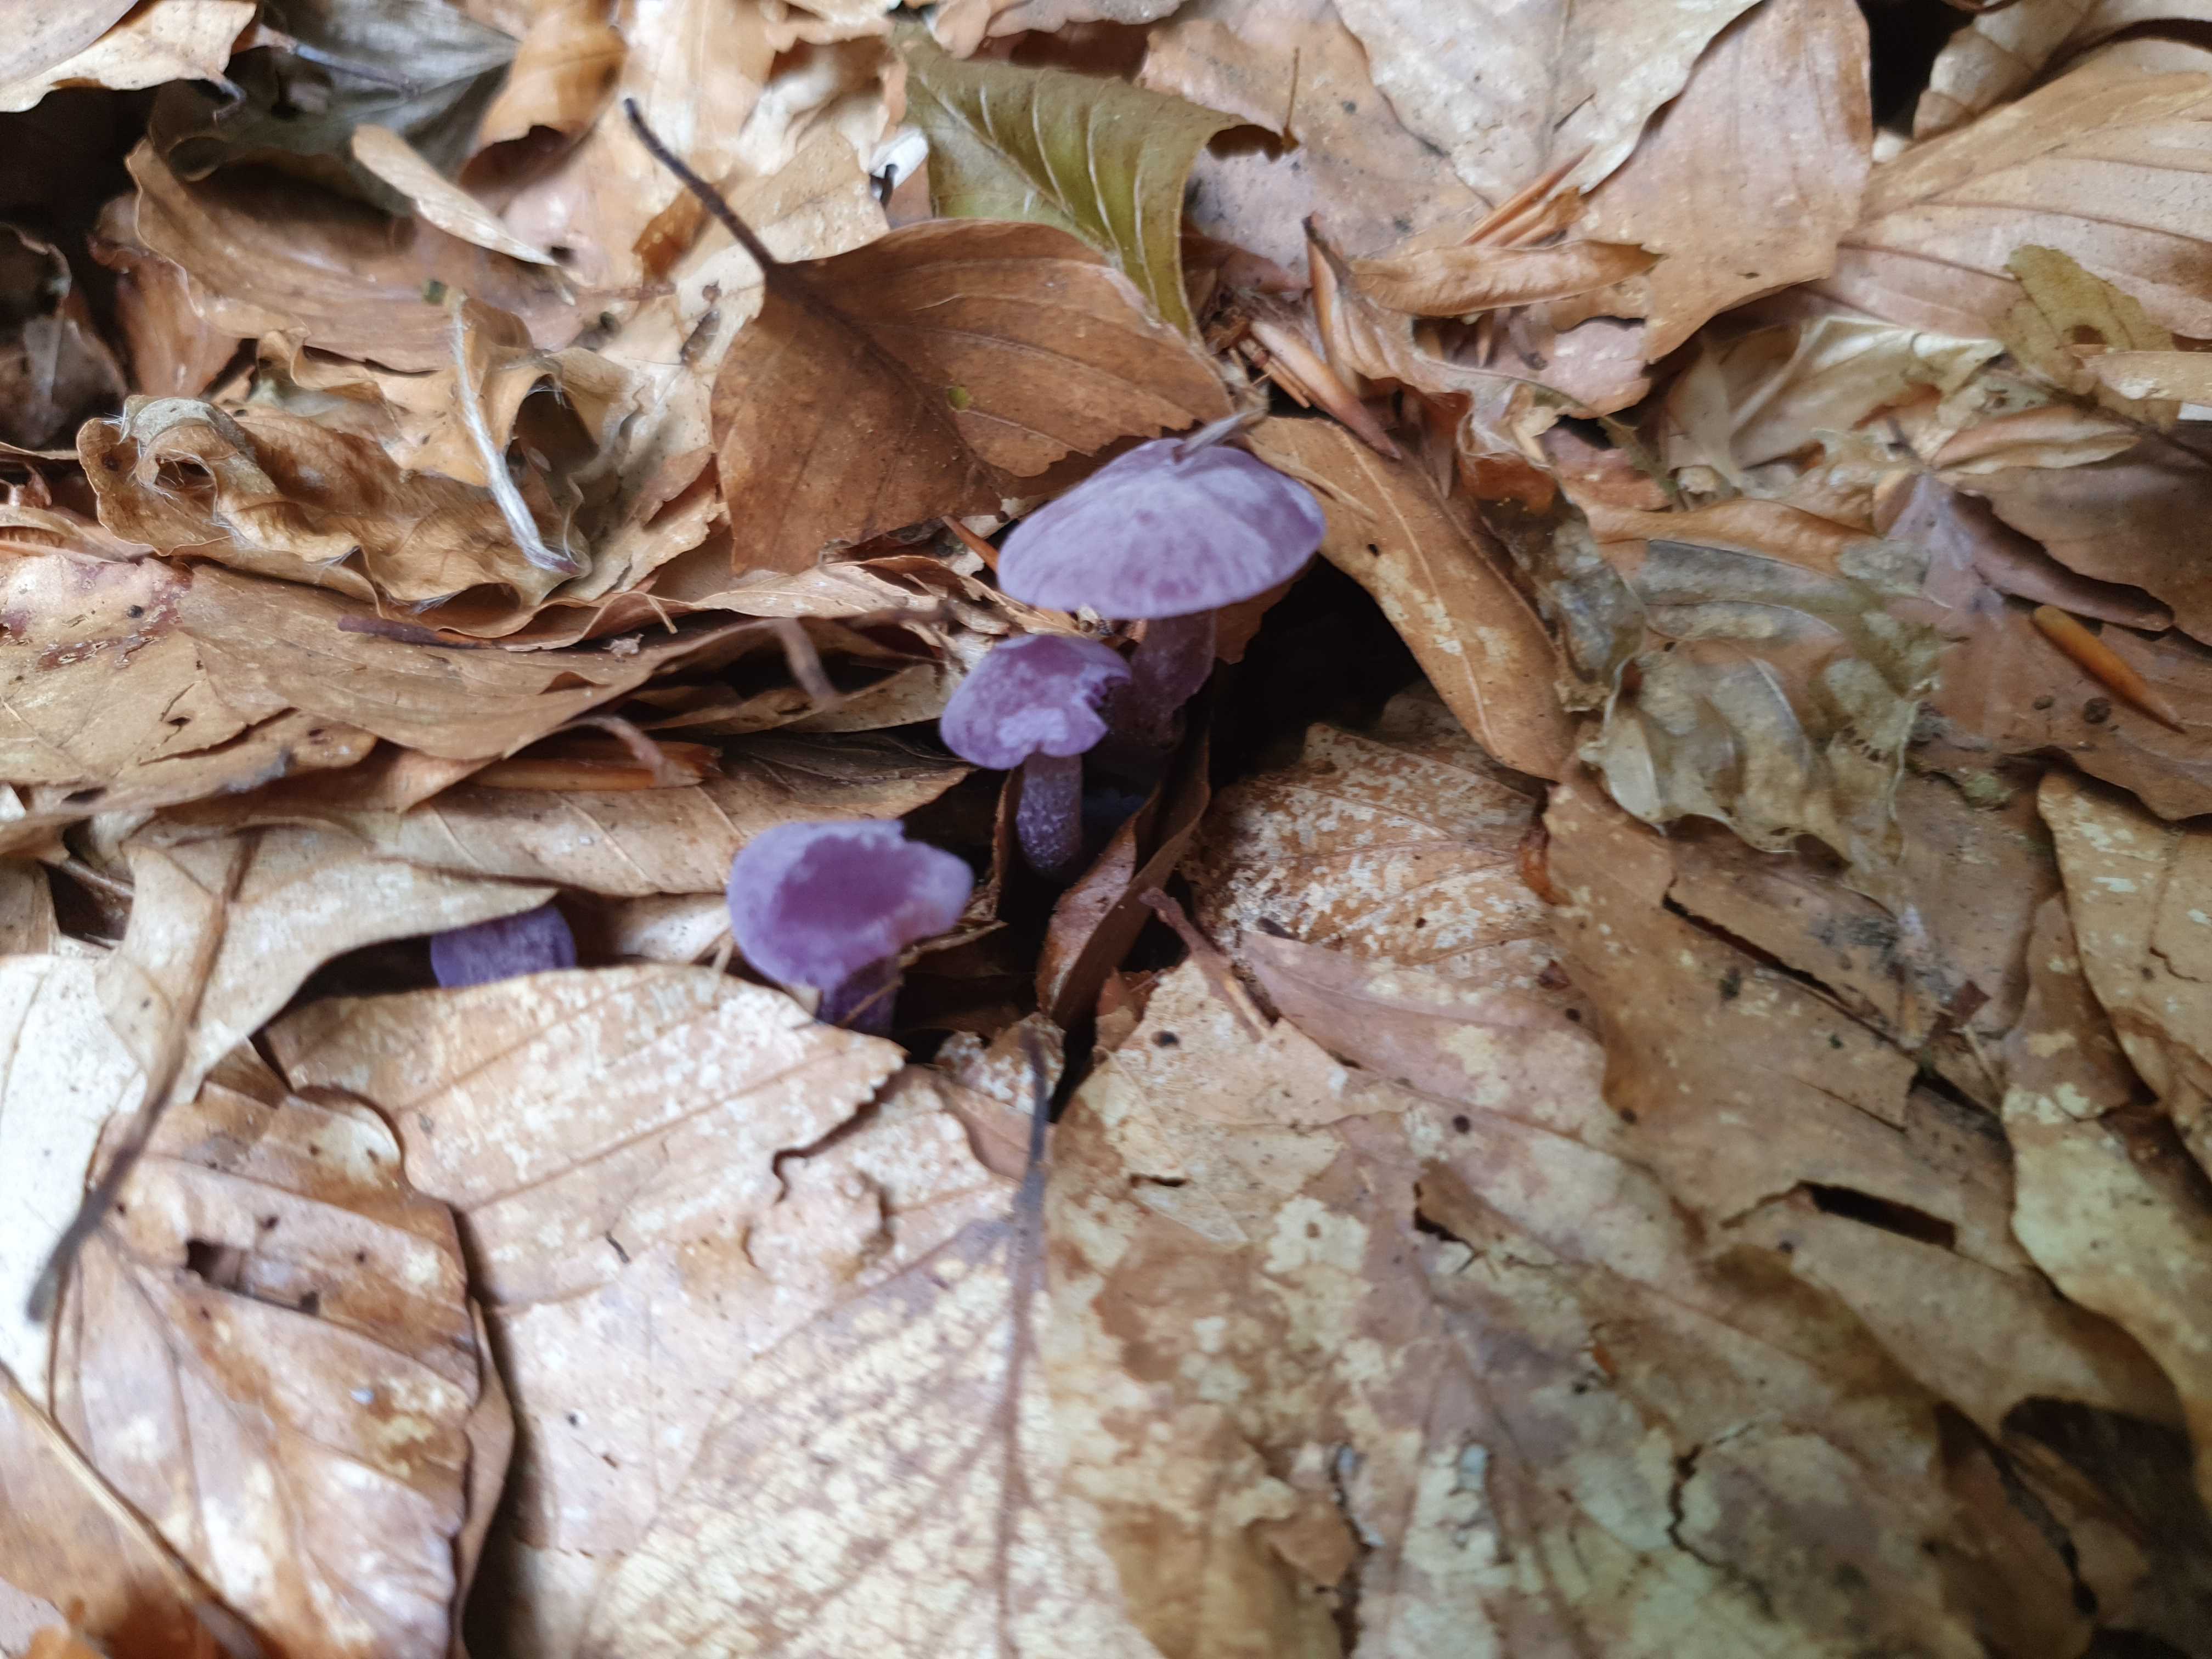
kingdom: Fungi
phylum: Basidiomycota
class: Agaricomycetes
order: Agaricales
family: Hydnangiaceae
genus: Laccaria
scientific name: Laccaria amethystina
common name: violet ametysthat
